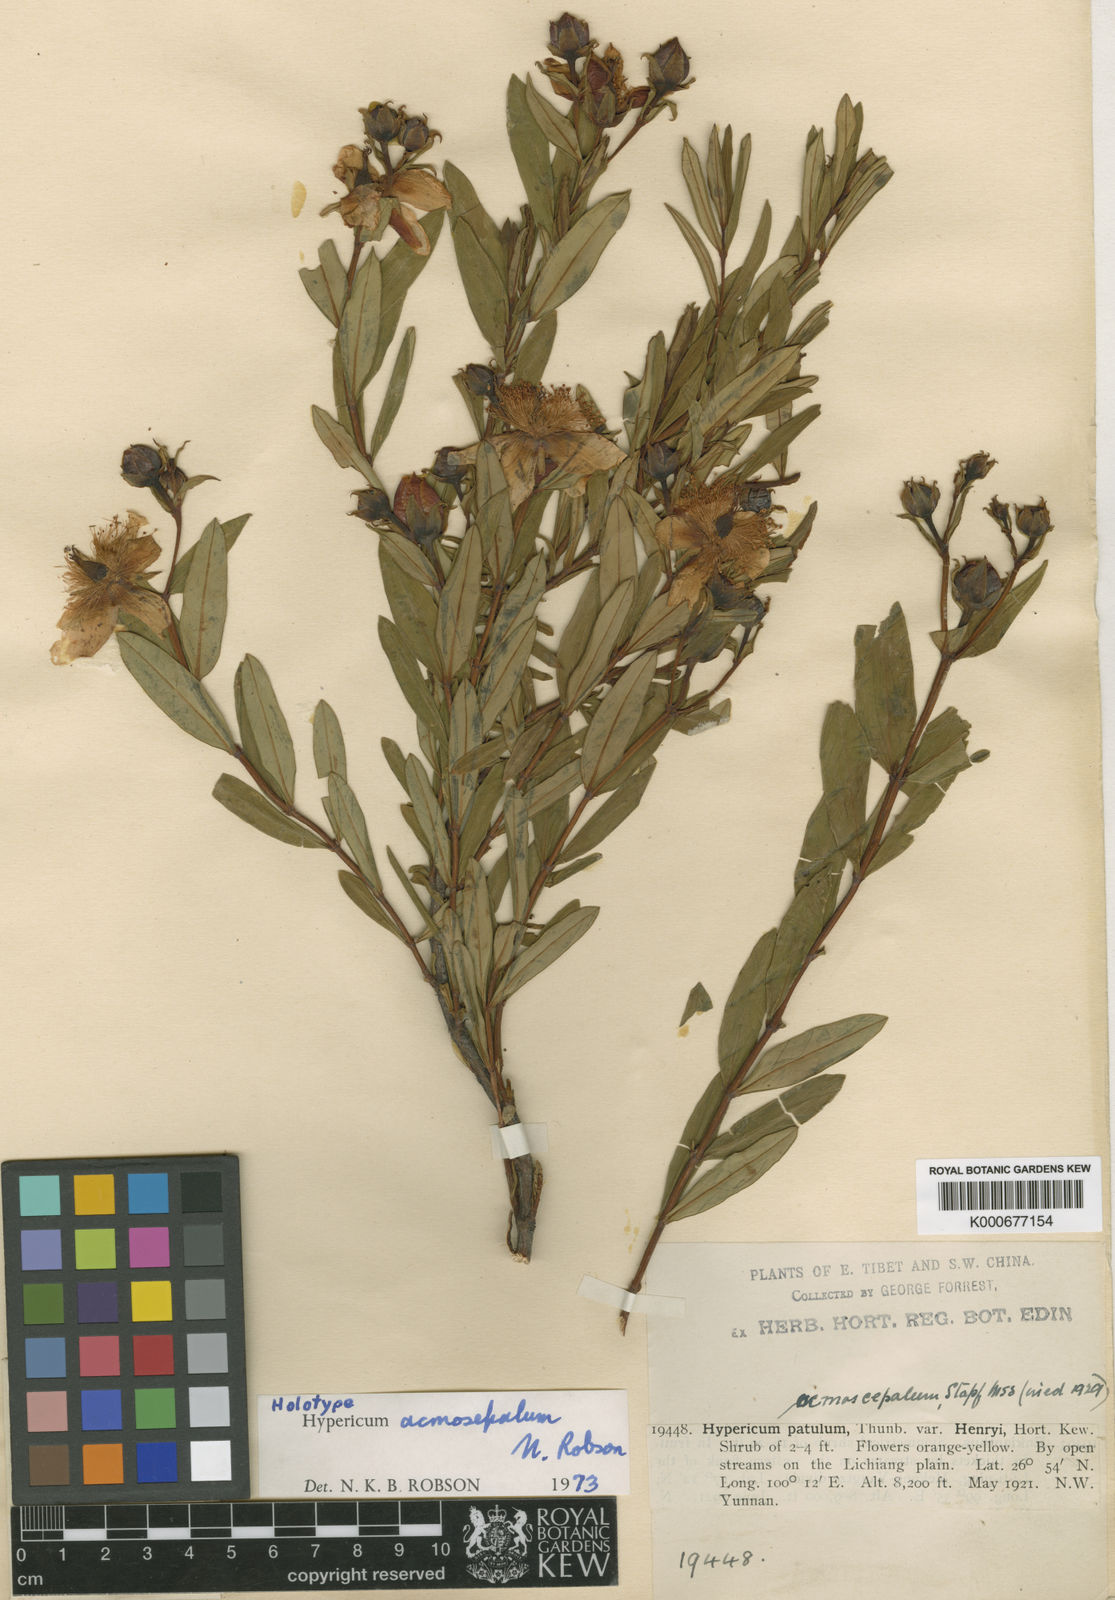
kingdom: Plantae
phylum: Tracheophyta
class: Magnoliopsida
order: Malpighiales
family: Hypericaceae
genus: Hypericum
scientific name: Hypericum acmosepalum
